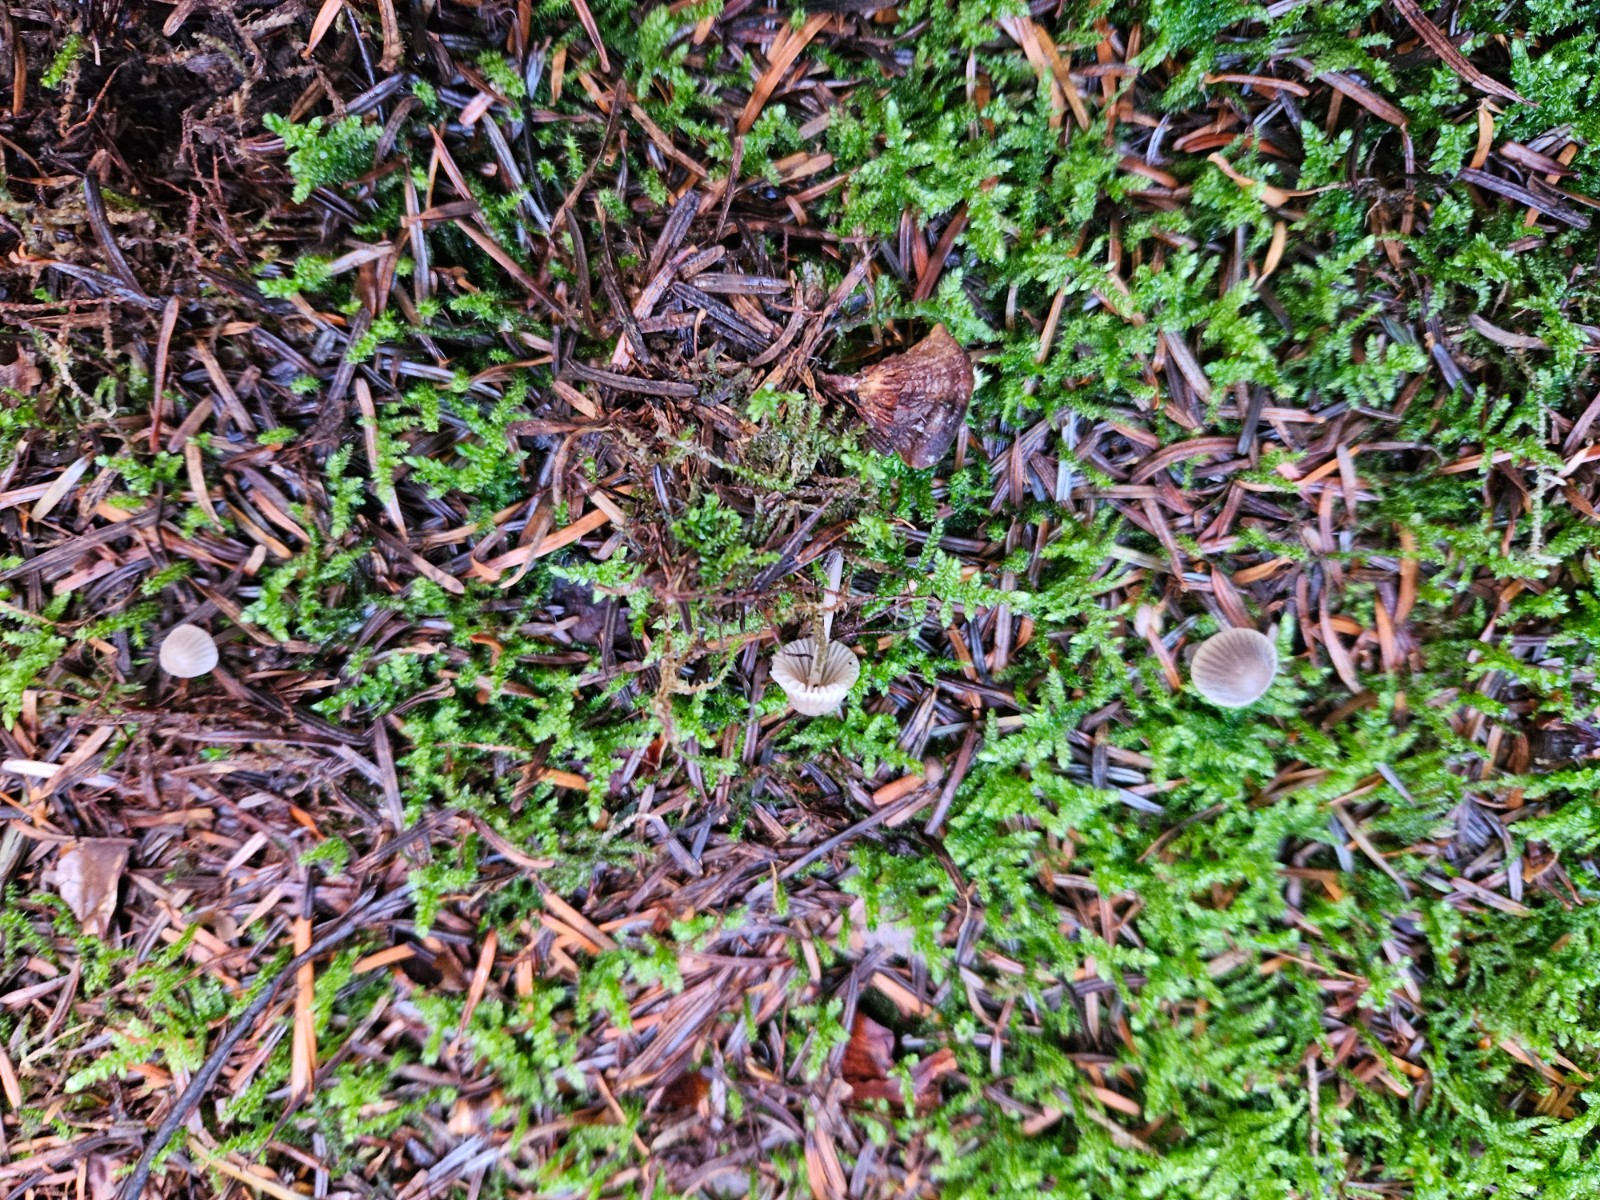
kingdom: Fungi
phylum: Basidiomycota
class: Agaricomycetes
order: Agaricales
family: Mycenaceae
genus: Mycena
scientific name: Mycena
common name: huesvamp
